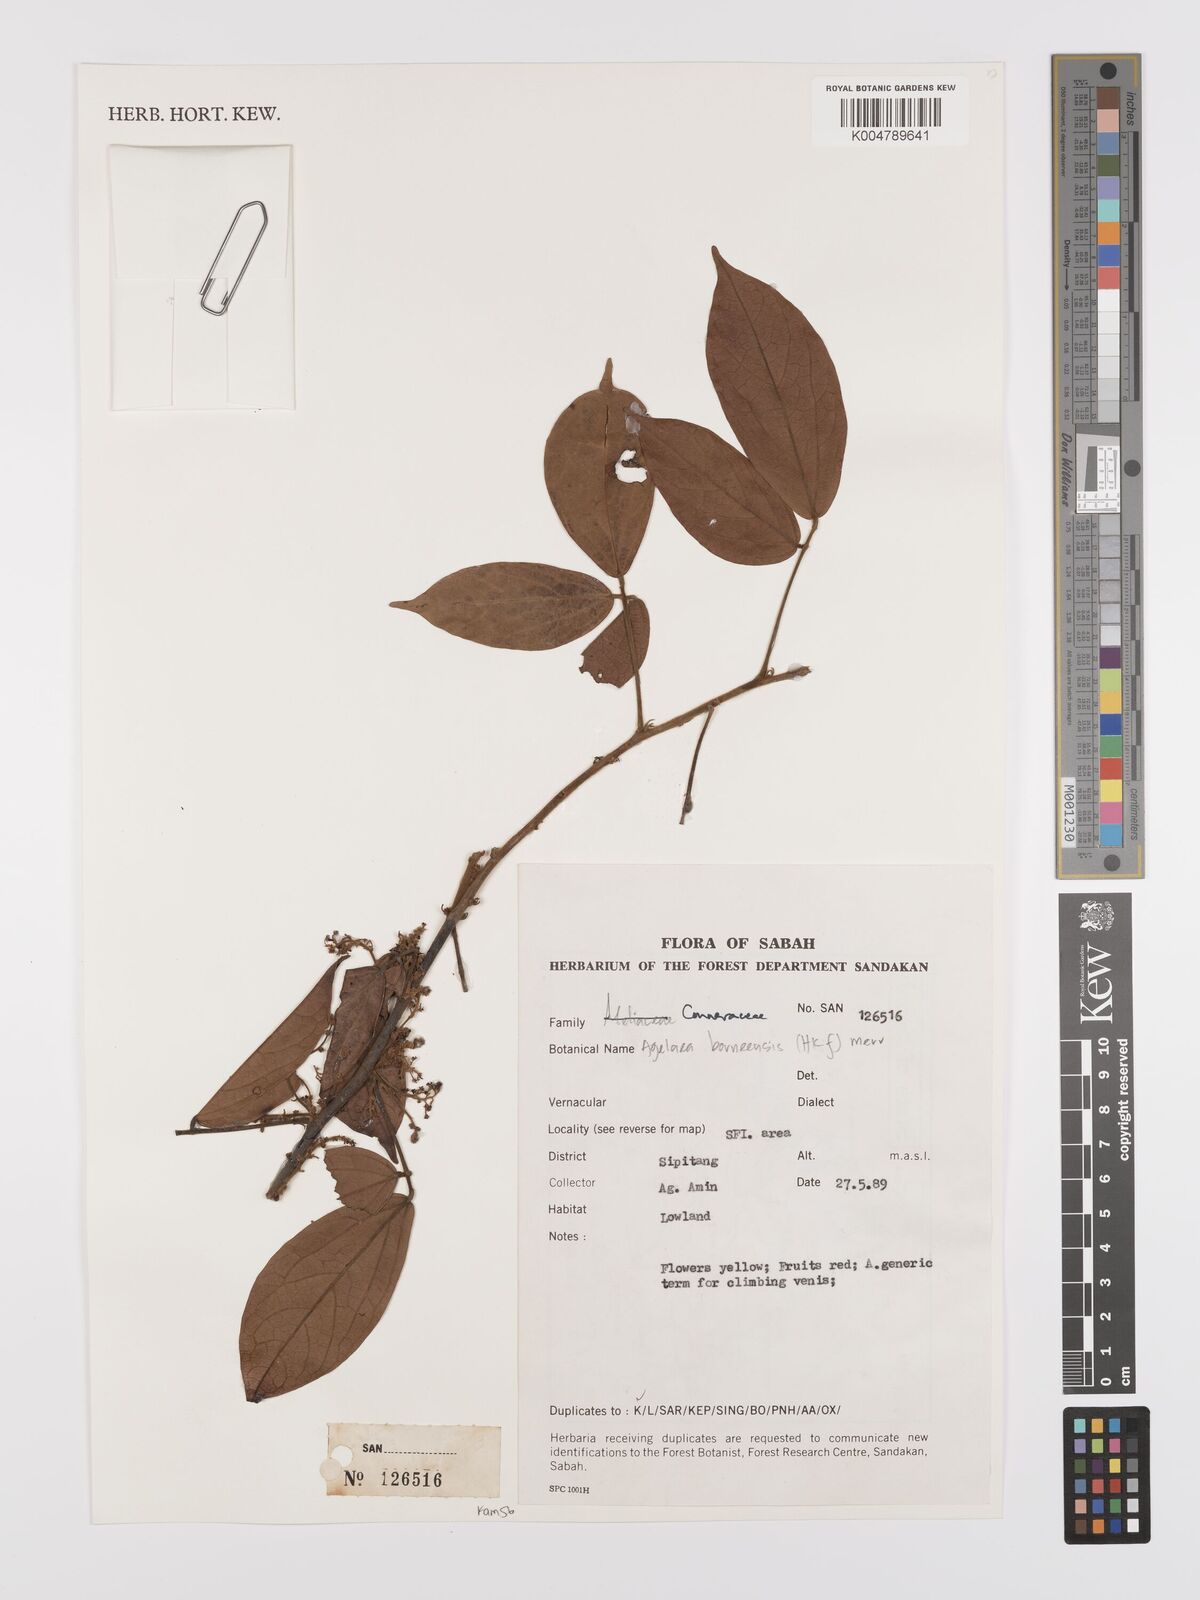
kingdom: Plantae
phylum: Tracheophyta
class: Magnoliopsida
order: Oxalidales
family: Connaraceae
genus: Agelaea
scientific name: Agelaea borneensis
